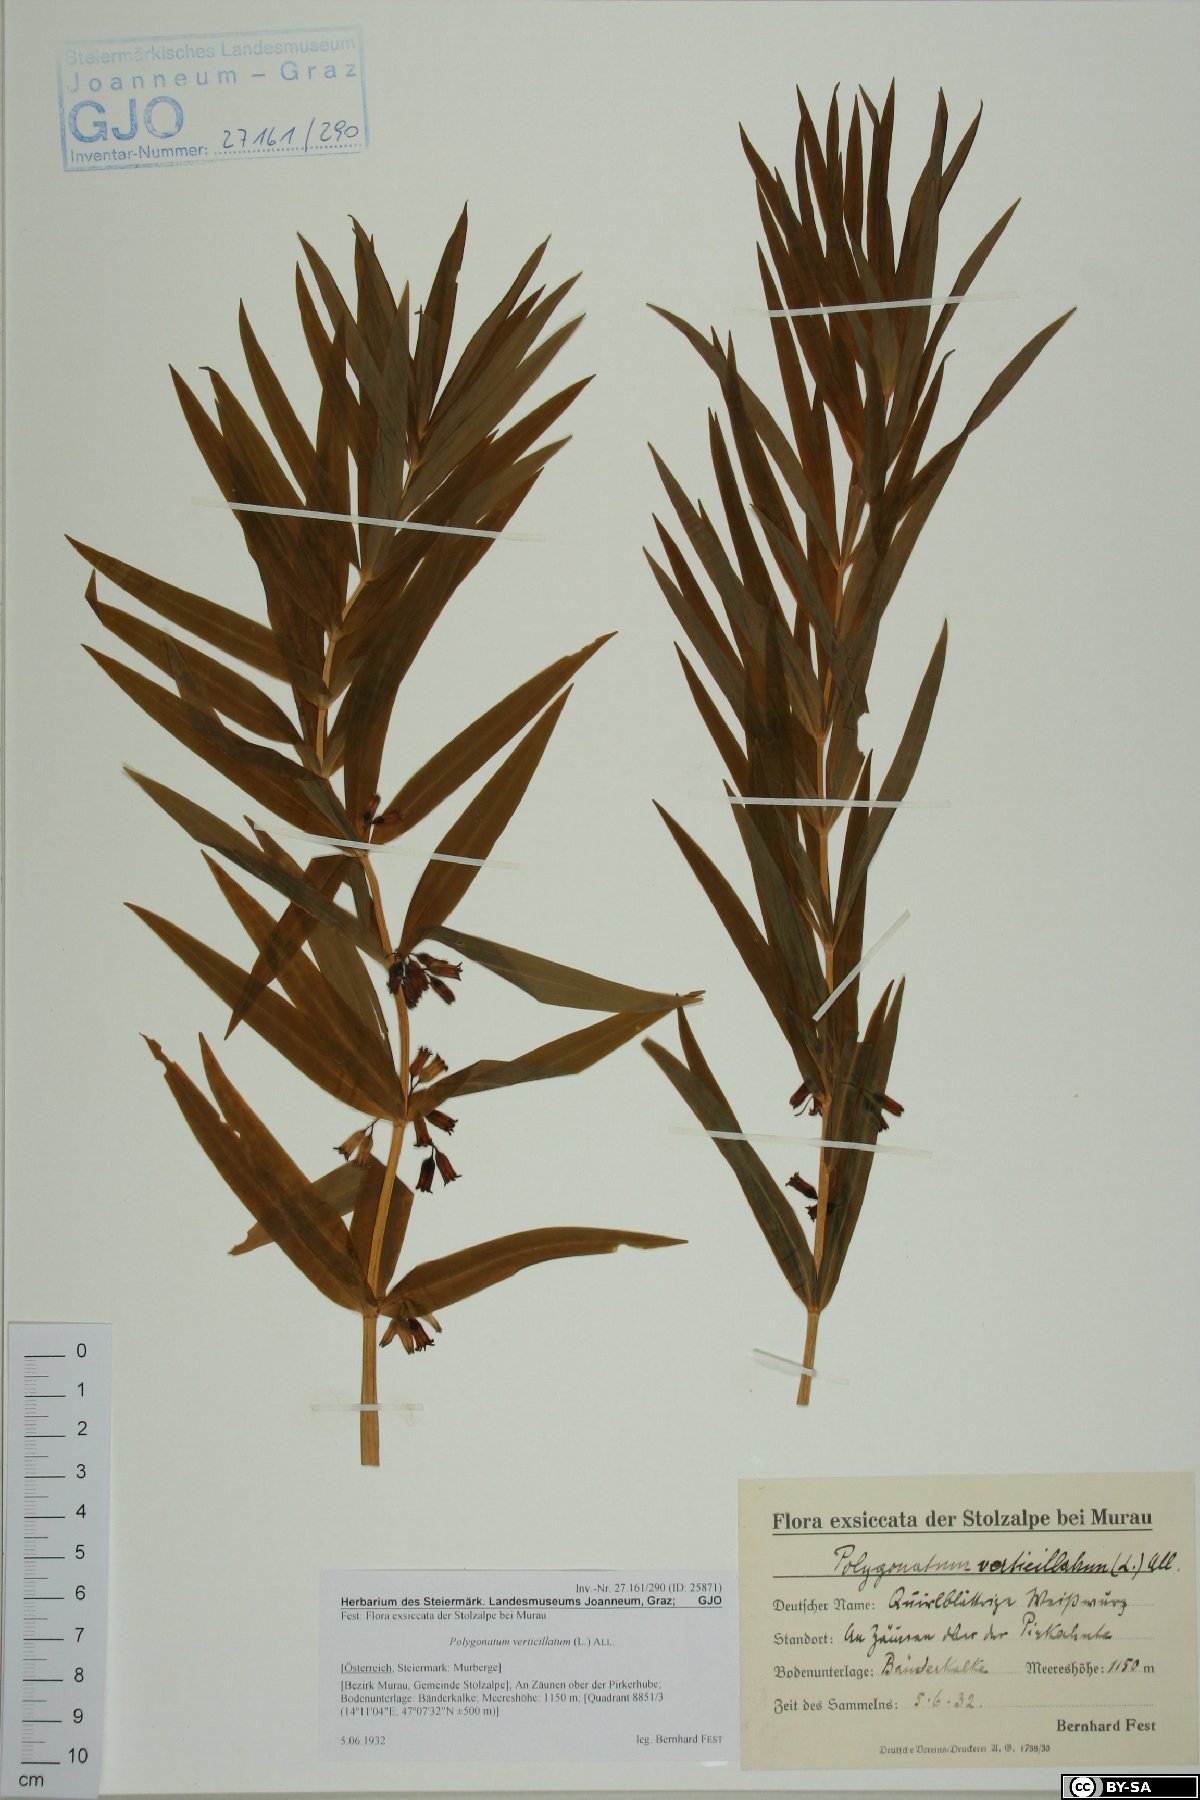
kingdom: Plantae
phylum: Tracheophyta
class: Liliopsida
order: Asparagales
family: Asparagaceae
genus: Polygonatum
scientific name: Polygonatum verticillatum
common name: Whorled solomon's-seal
